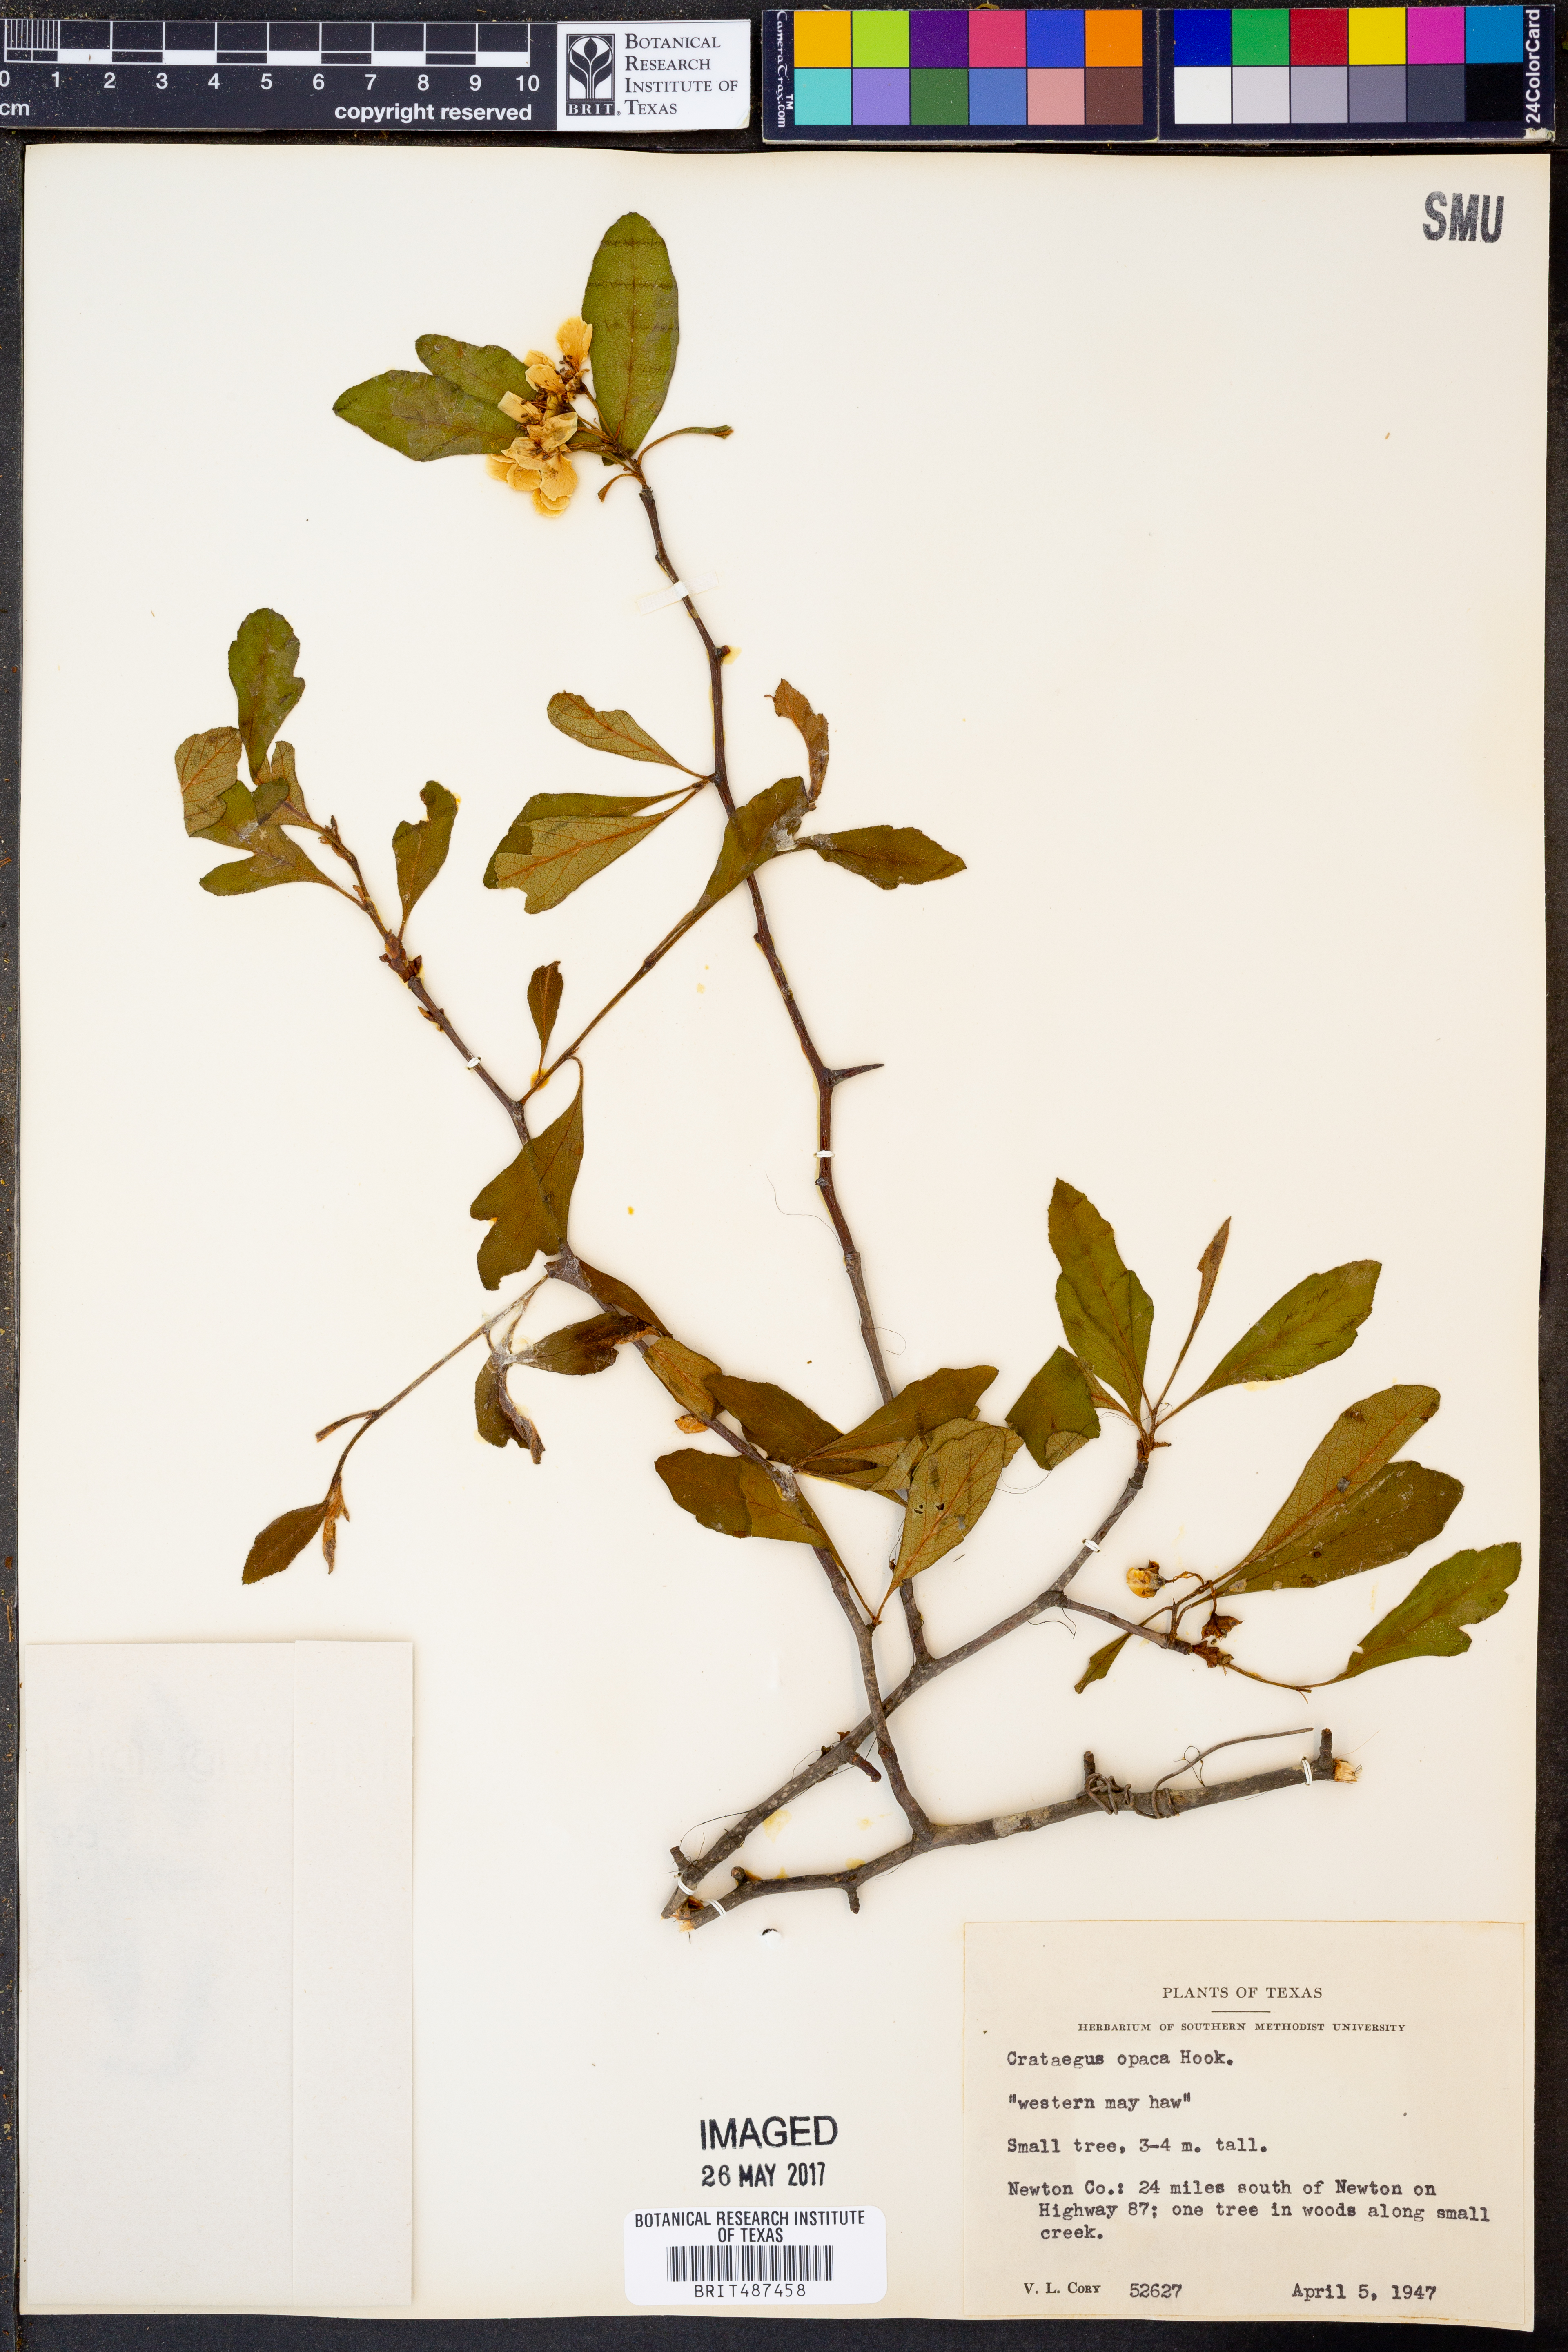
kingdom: Plantae
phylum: Tracheophyta
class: Magnoliopsida
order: Rosales
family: Rosaceae
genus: Crataegus
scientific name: Crataegus opaca
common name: Apple haw
